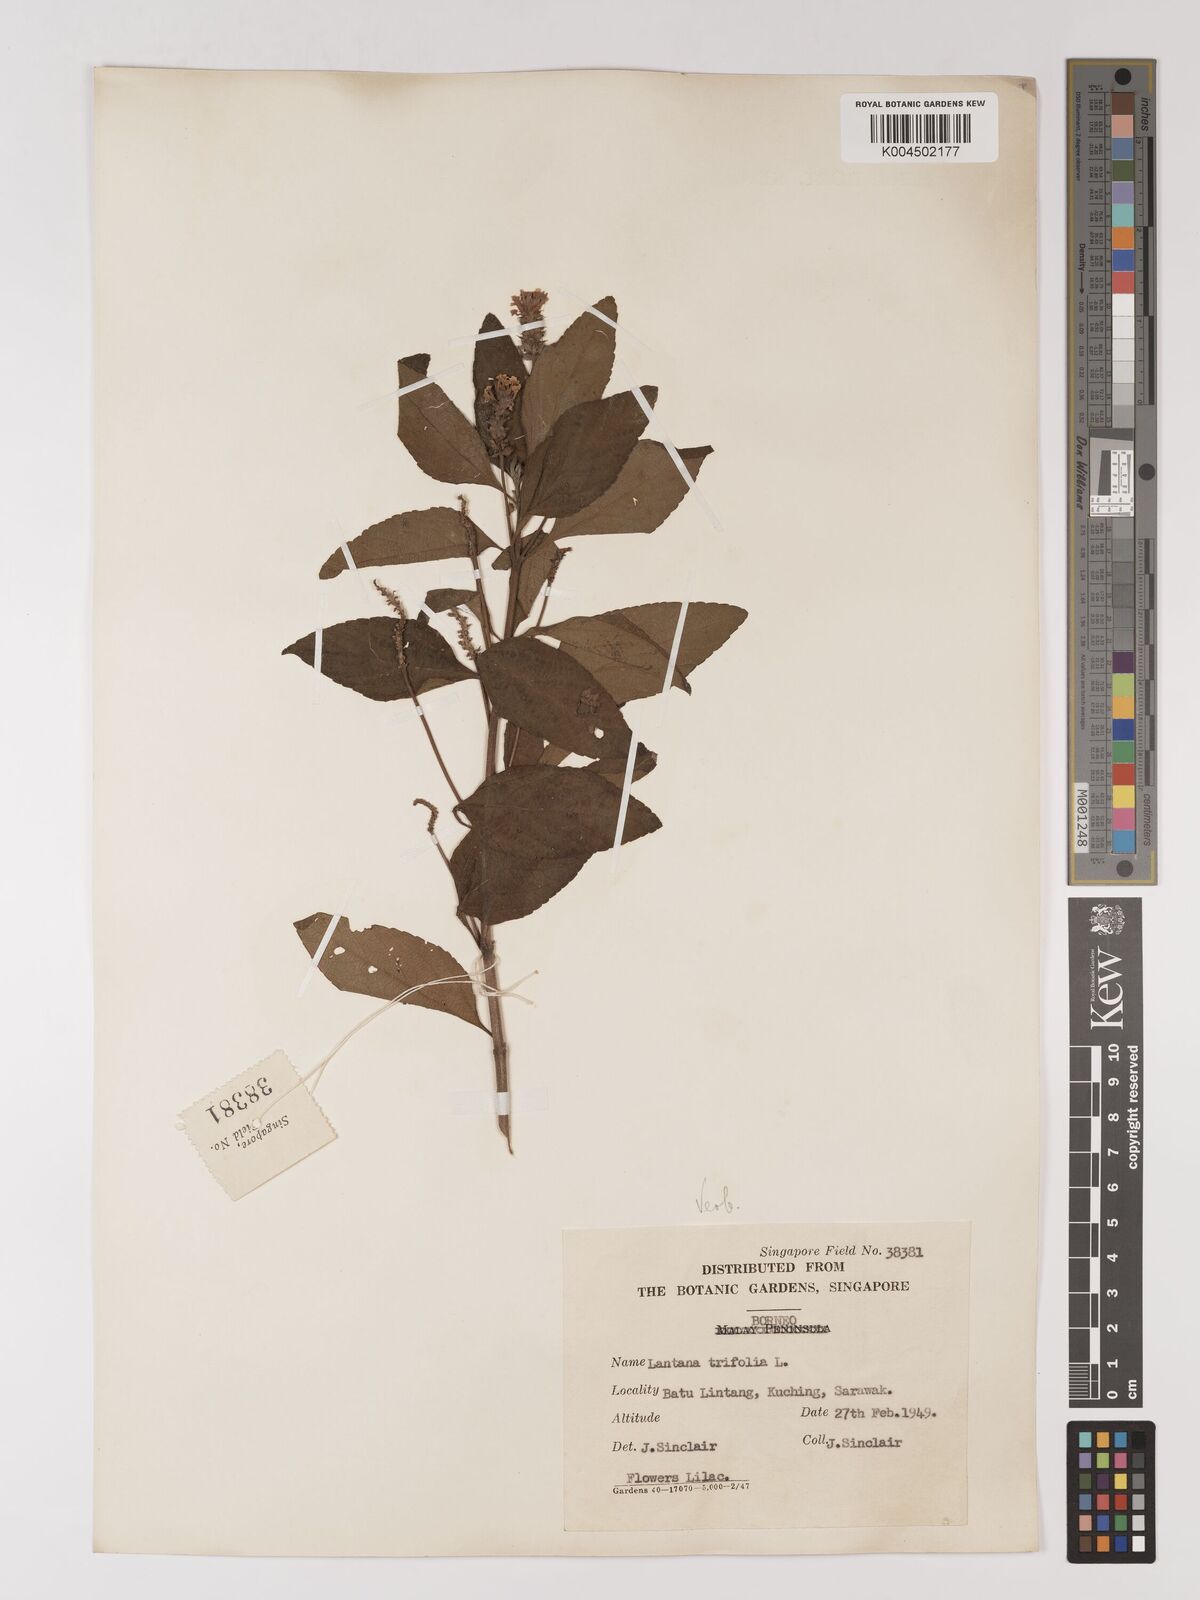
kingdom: Plantae
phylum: Tracheophyta
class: Magnoliopsida
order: Lamiales
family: Verbenaceae
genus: Lantana
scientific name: Lantana trifolia
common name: Sweet-sage
